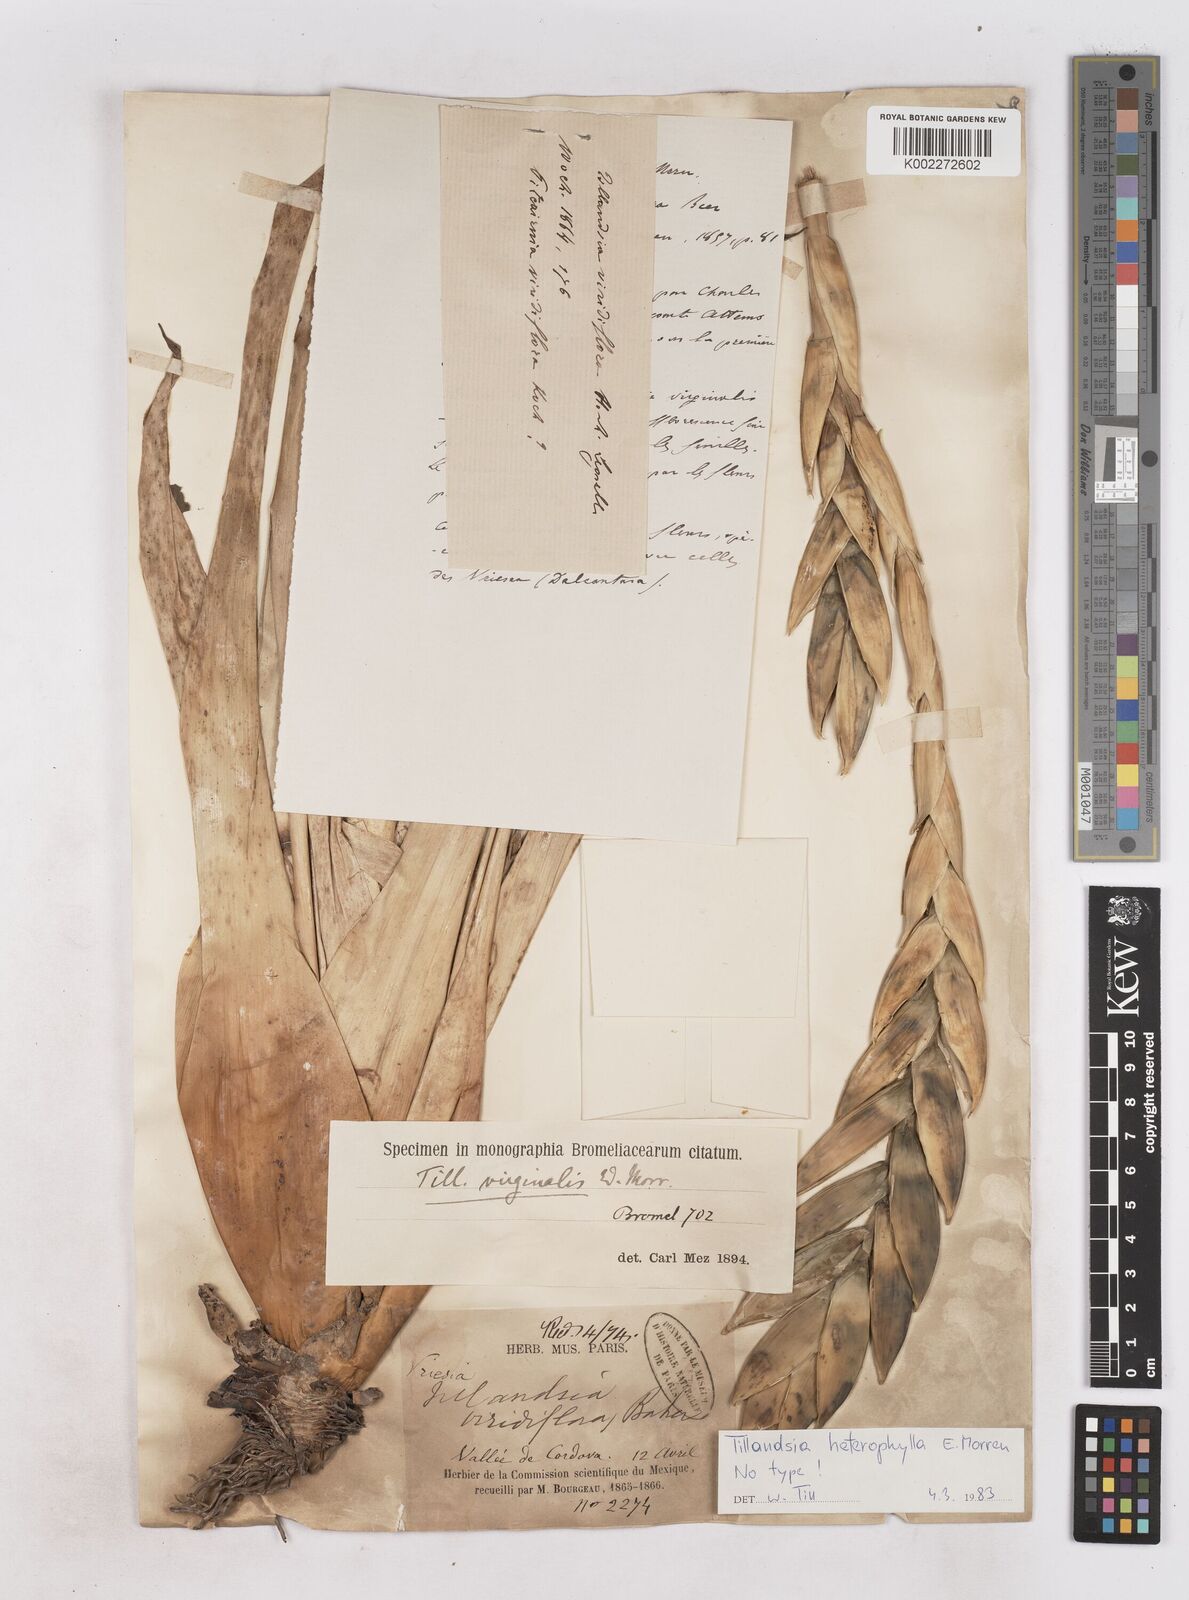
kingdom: Plantae
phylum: Tracheophyta
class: Liliopsida
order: Poales
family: Bromeliaceae
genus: Tillandsia
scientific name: Tillandsia heterophylla
